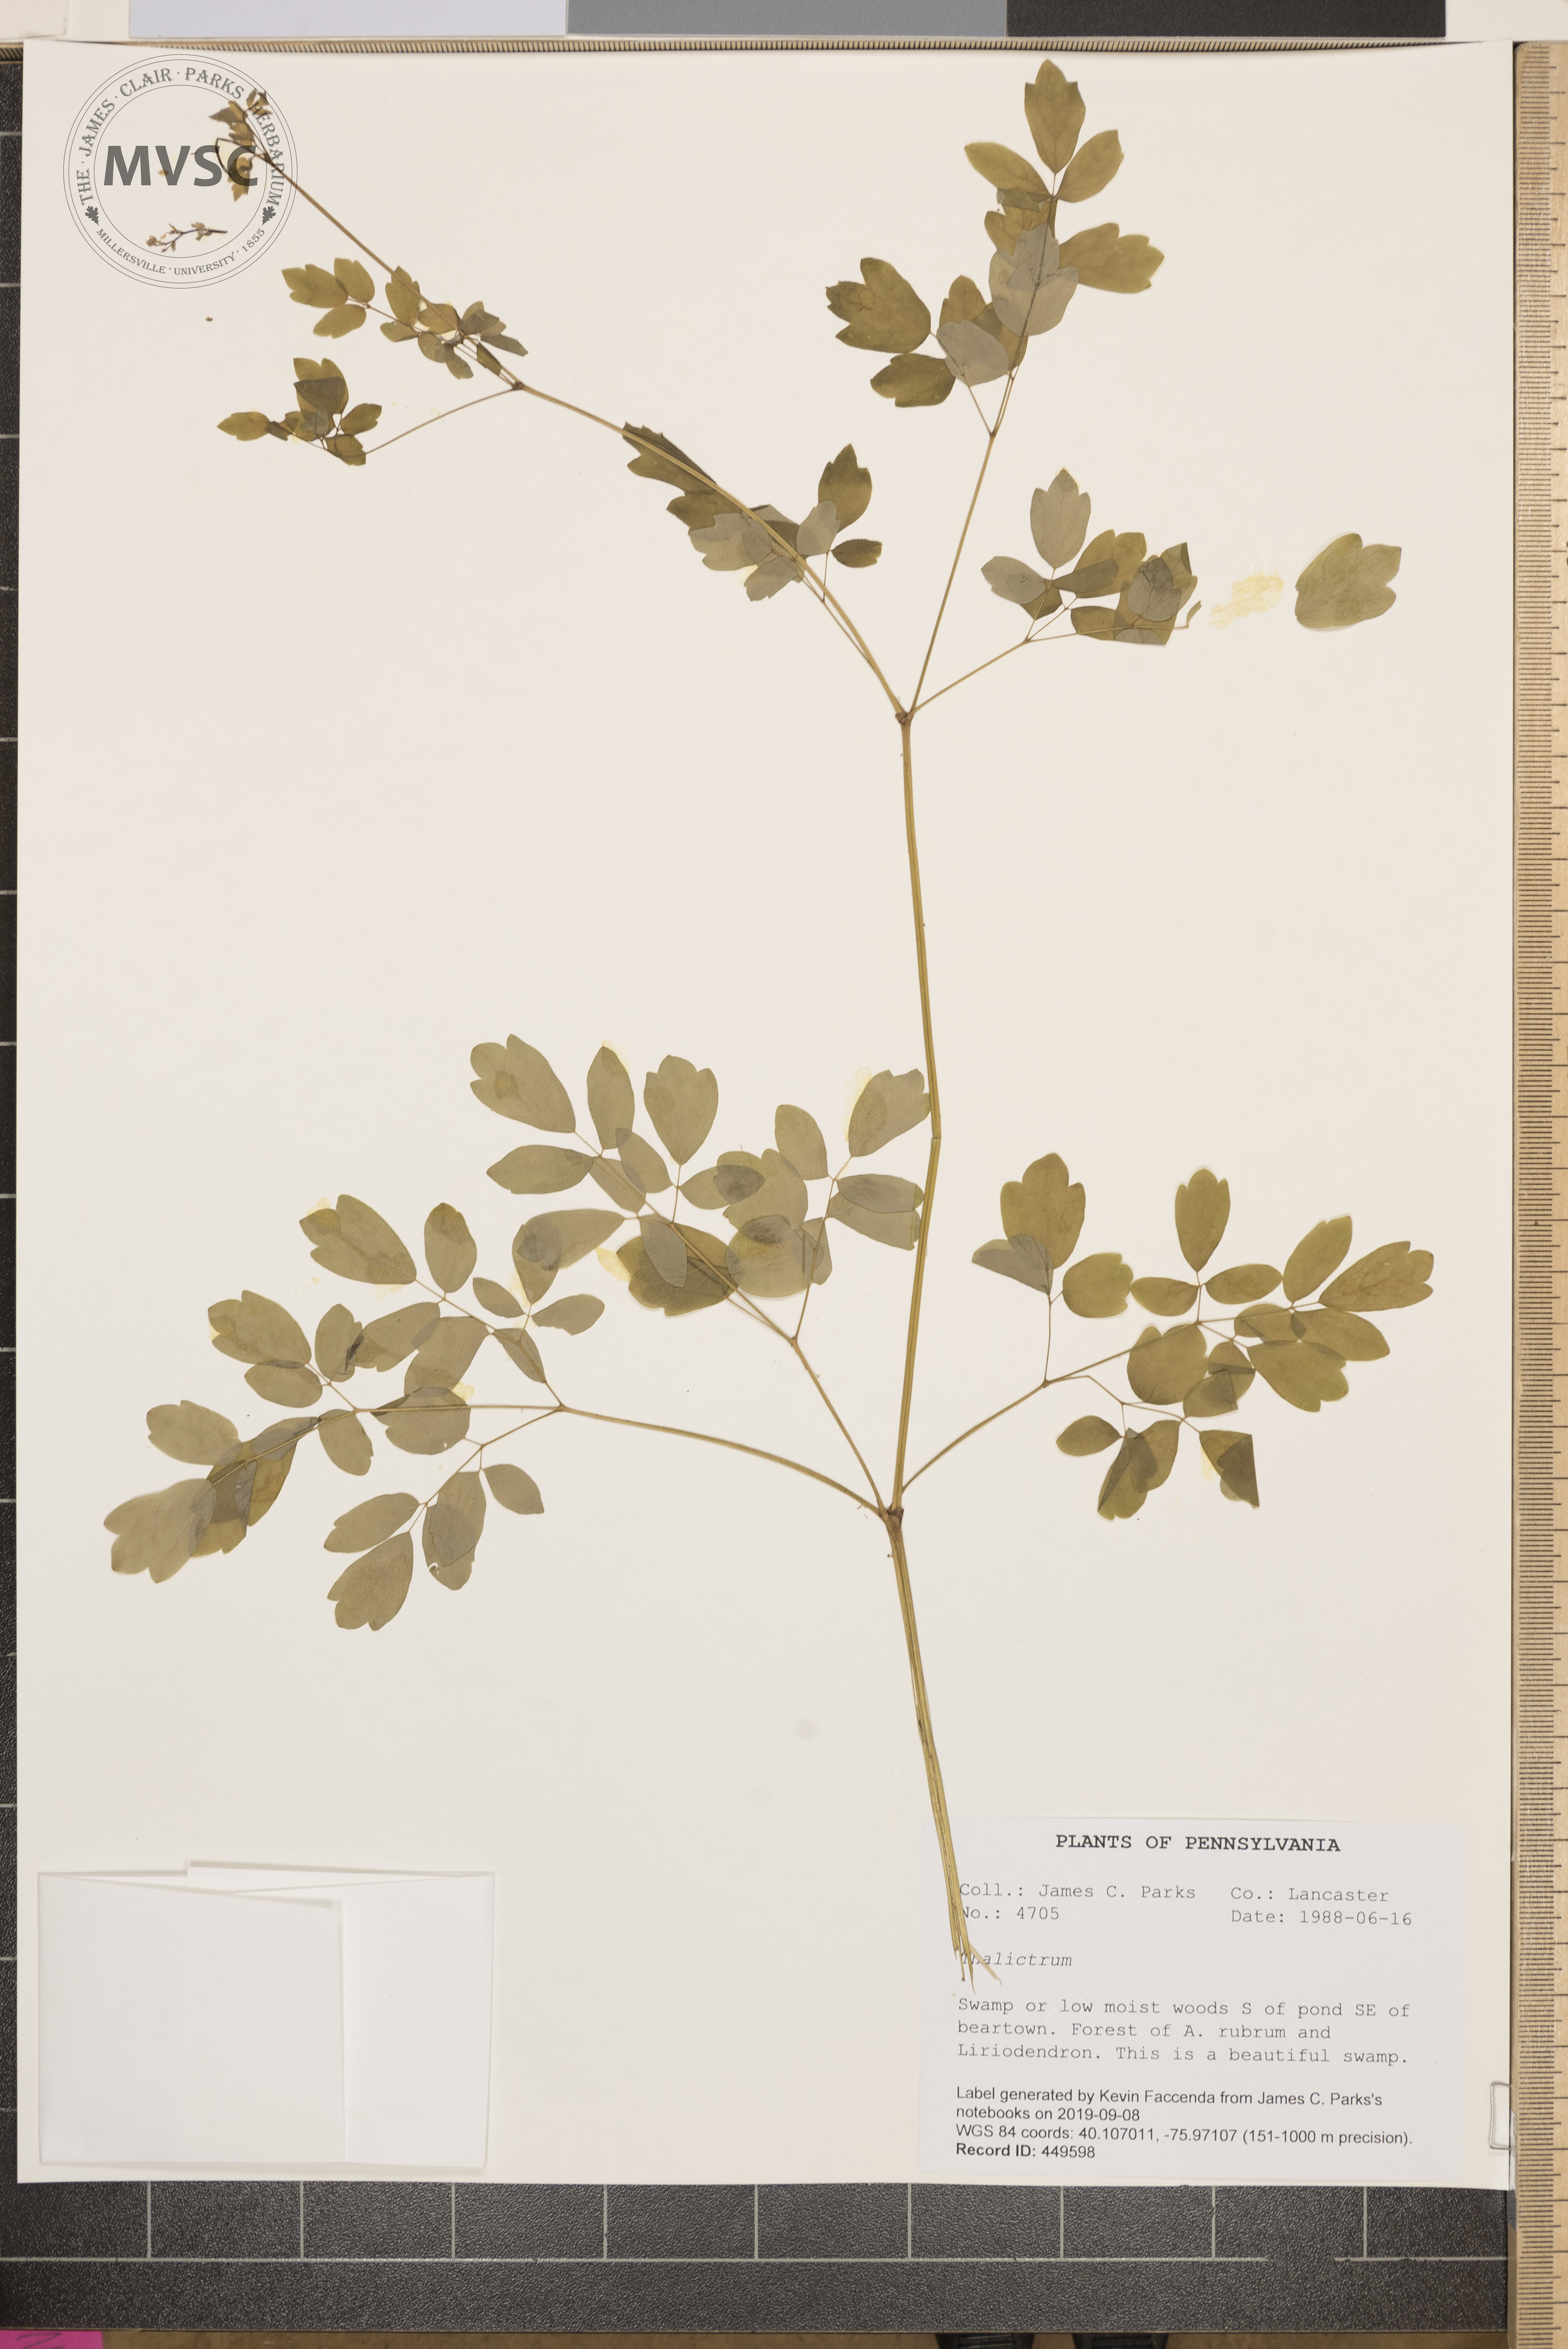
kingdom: Plantae
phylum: Tracheophyta
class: Magnoliopsida
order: Ranunculales
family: Ranunculaceae
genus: Thalictrum
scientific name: Thalictrum pubescens
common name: King-of-the-meadow
